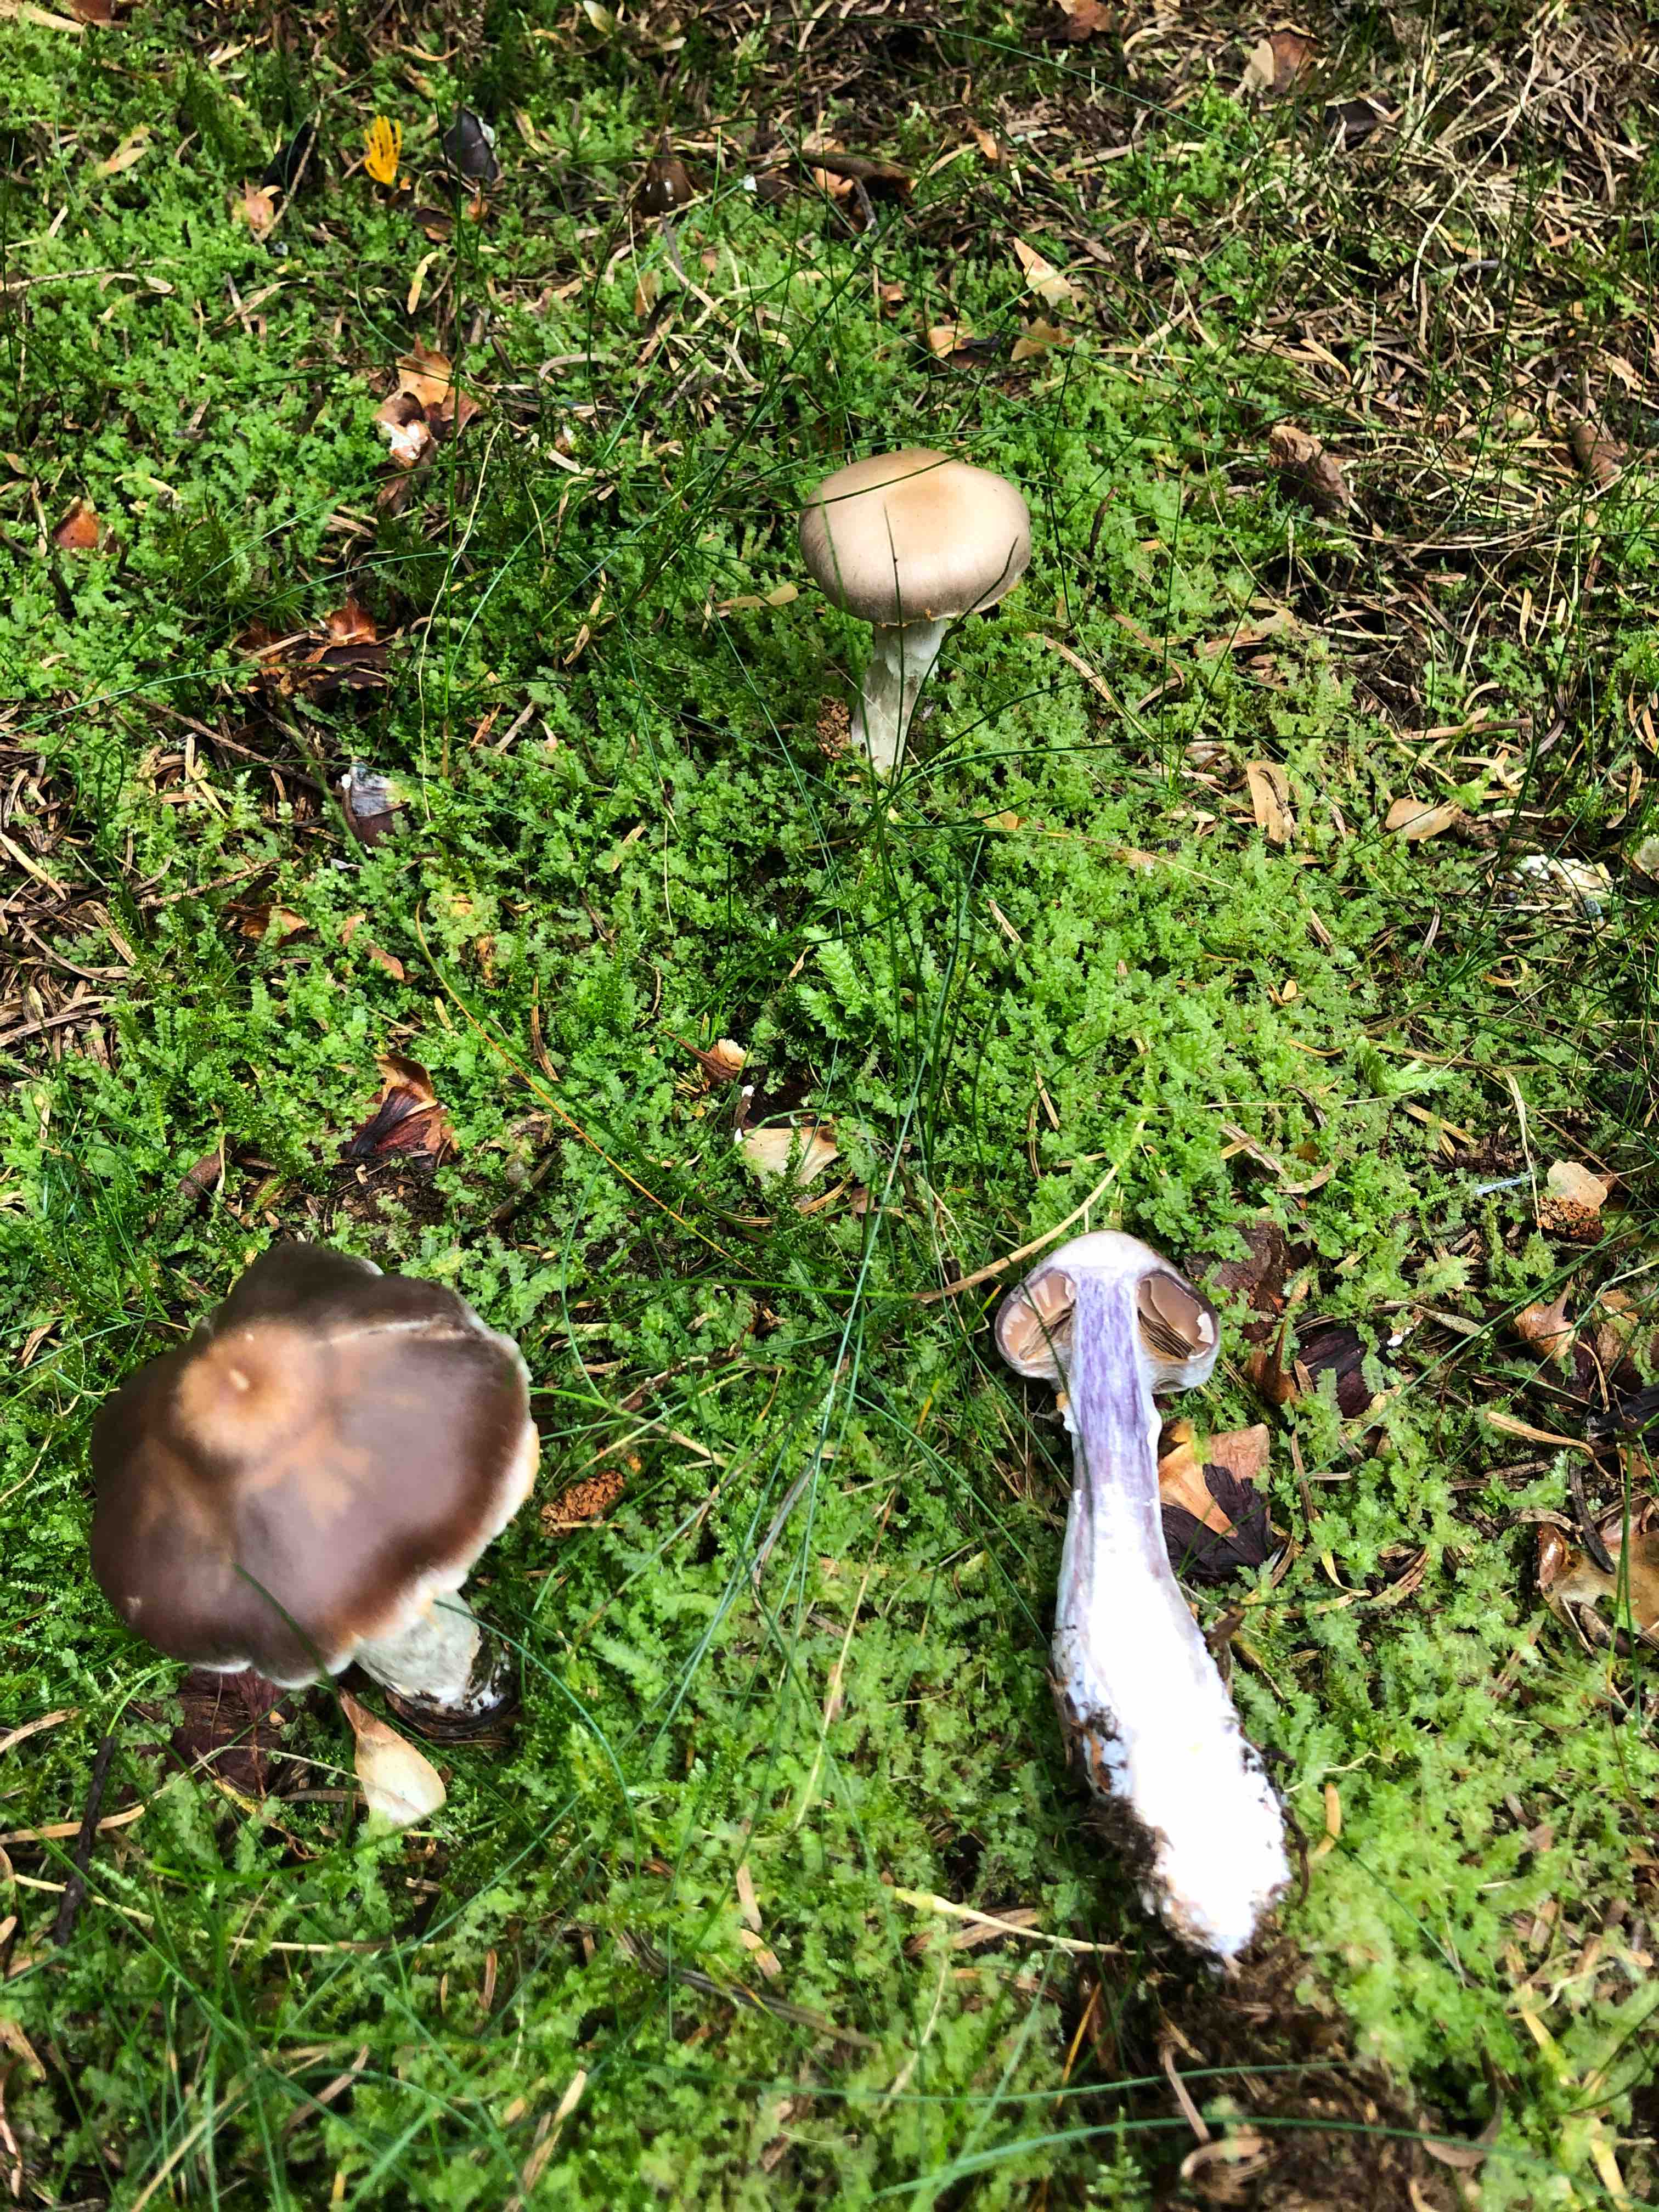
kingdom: Fungi
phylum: Basidiomycota
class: Agaricomycetes
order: Agaricales
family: Cortinariaceae
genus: Cortinarius
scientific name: Cortinarius
